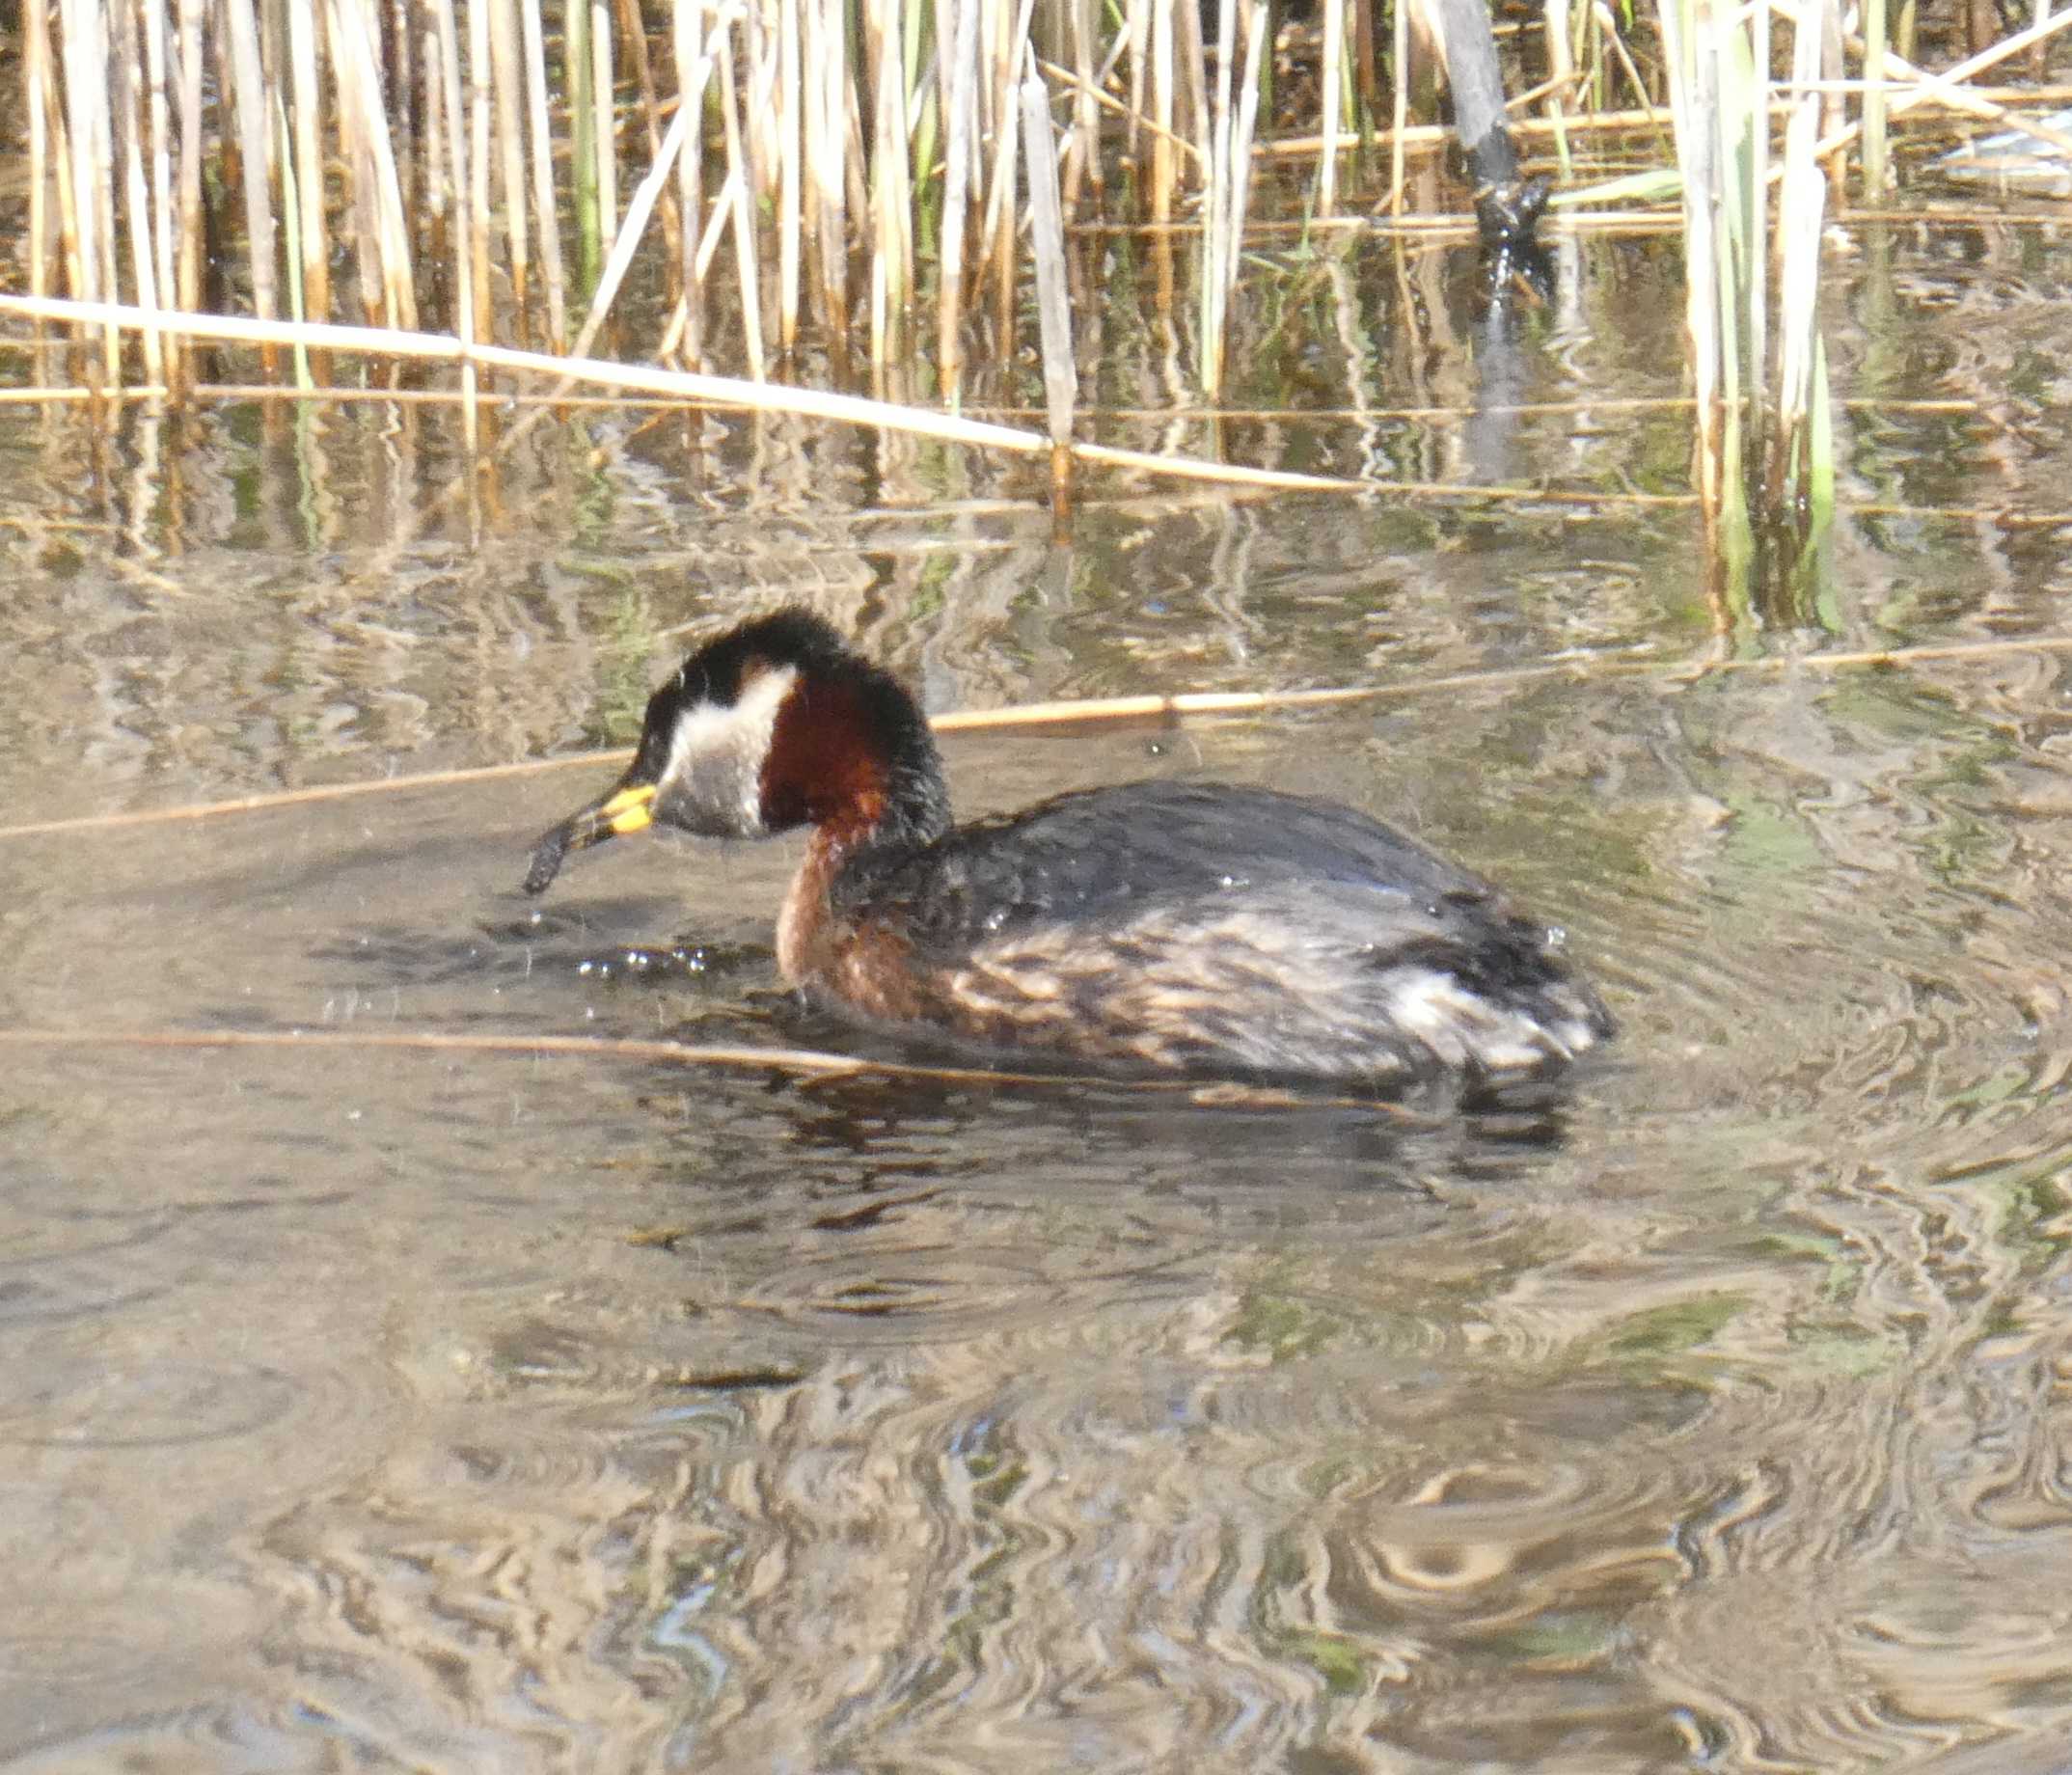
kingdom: Animalia
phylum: Chordata
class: Aves
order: Podicipediformes
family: Podicipedidae
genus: Podiceps
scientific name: Podiceps grisegena
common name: Gråstrubet lappedykker
